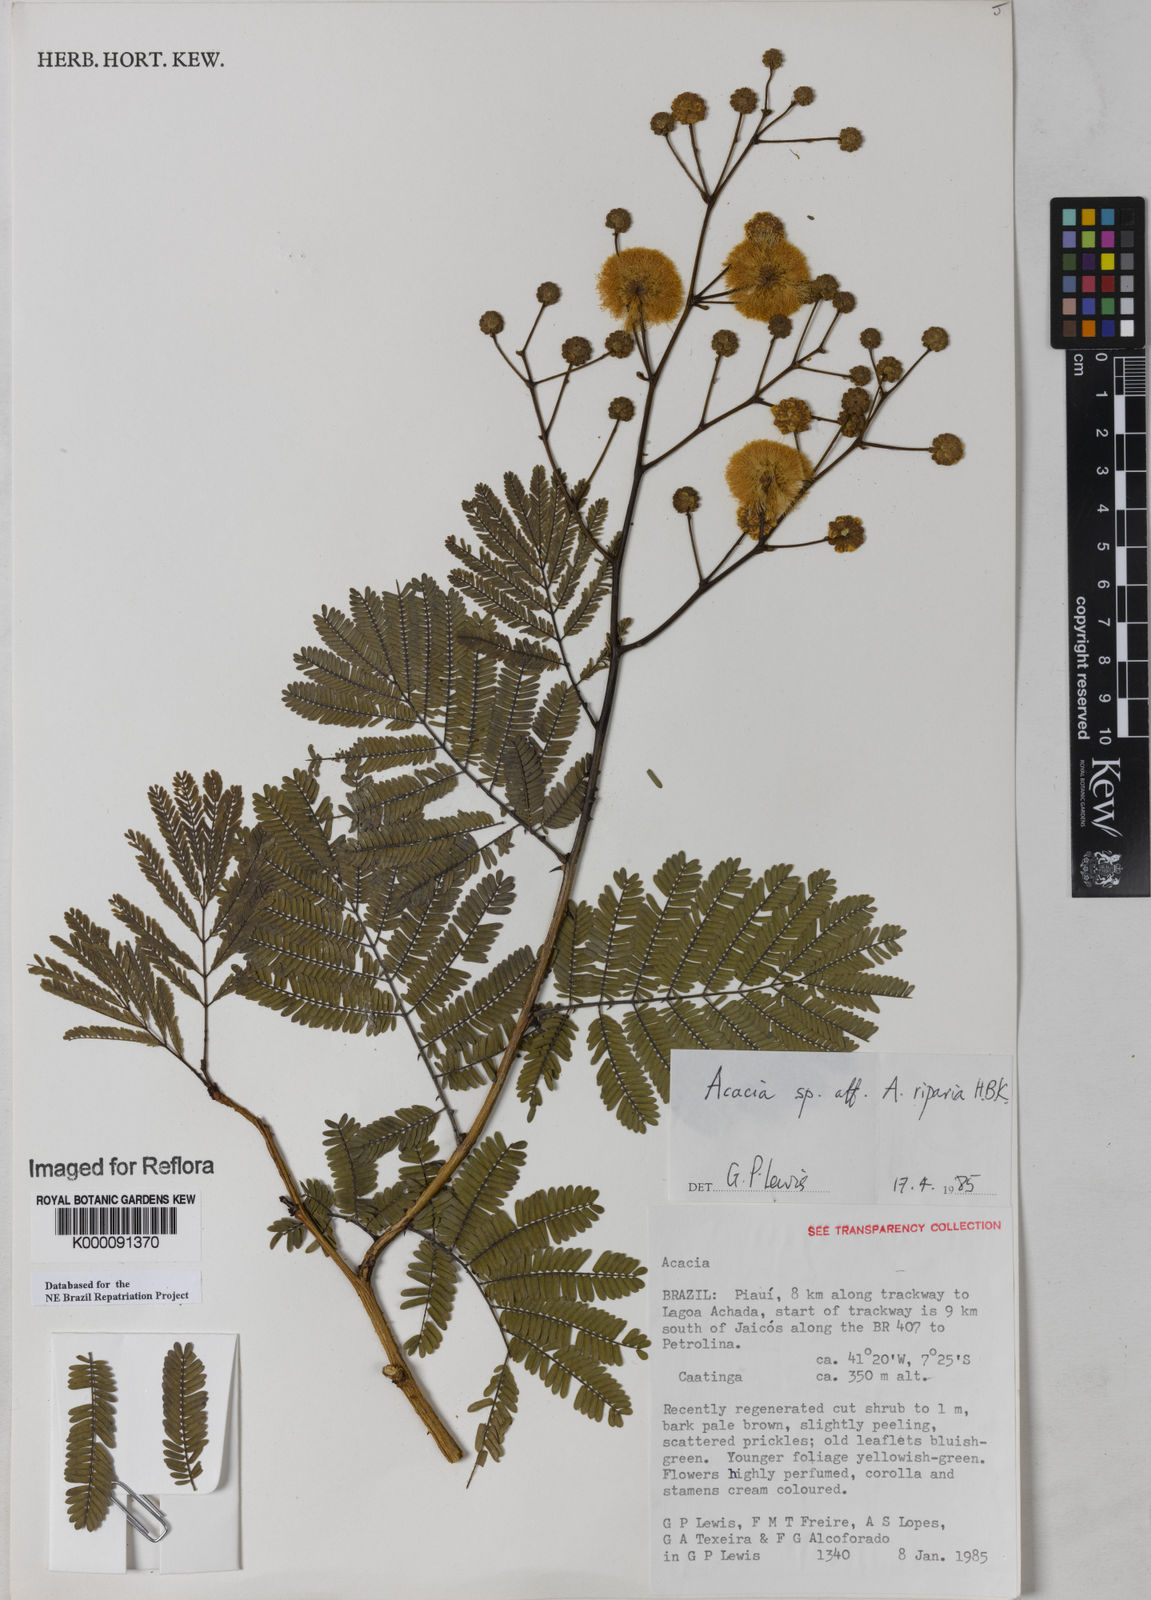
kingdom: Plantae
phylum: Tracheophyta
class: Magnoliopsida
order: Fabales
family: Fabaceae
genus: Senegalia
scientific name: Senegalia riparia
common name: Catch-and-keep
